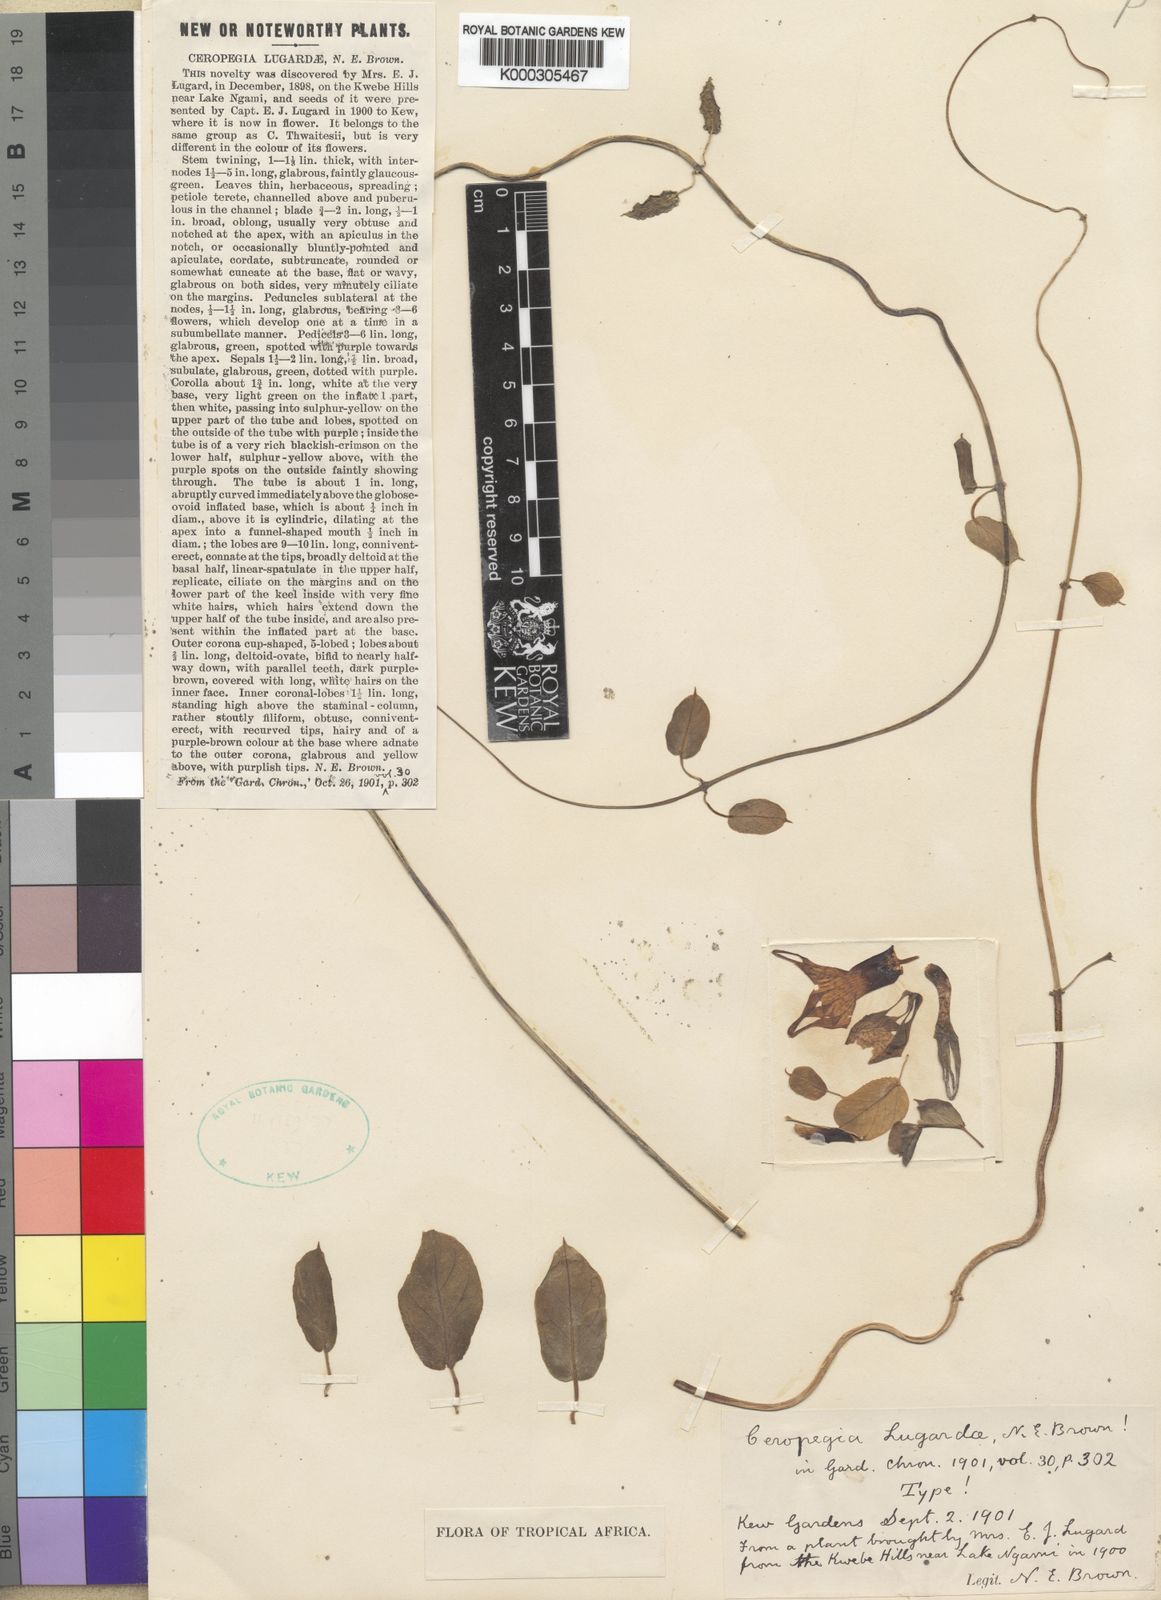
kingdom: Plantae
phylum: Tracheophyta
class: Magnoliopsida
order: Gentianales
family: Apocynaceae
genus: Ceropegia
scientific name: Ceropegia distincta
